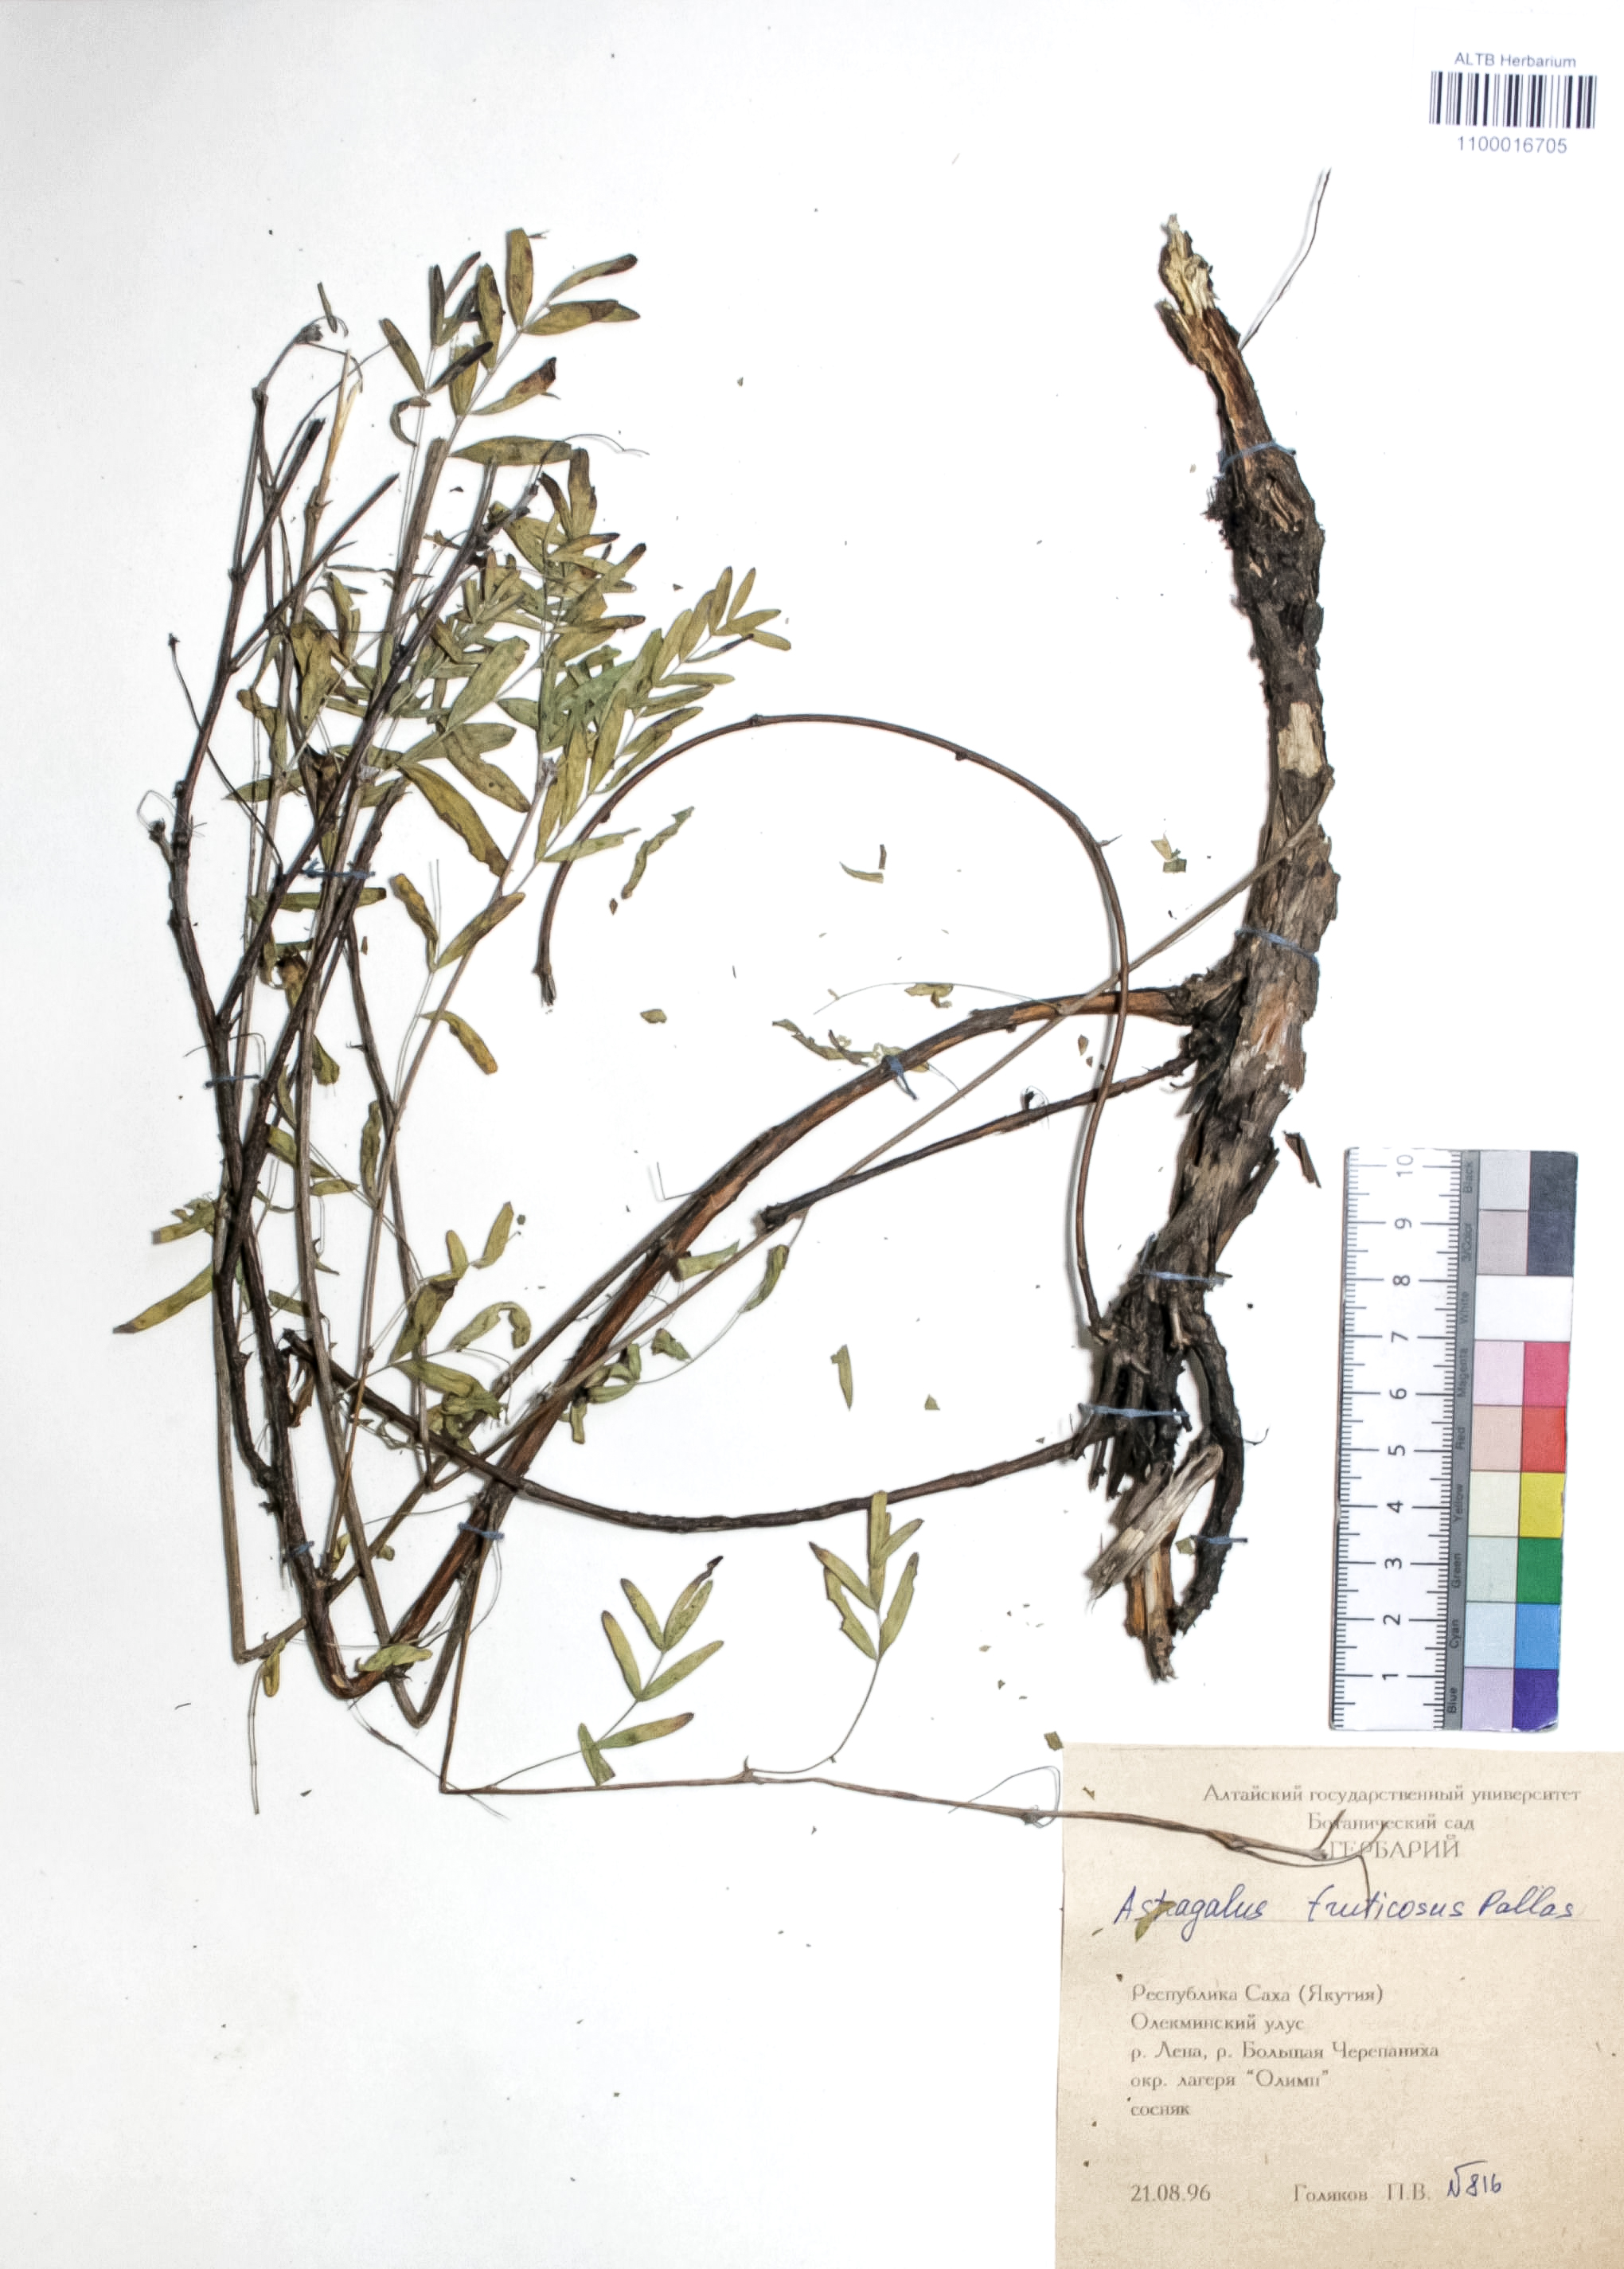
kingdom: Plantae
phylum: Tracheophyta
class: Magnoliopsida
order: Fabales
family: Fabaceae
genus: Astragalus
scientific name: Astragalus syriacus
